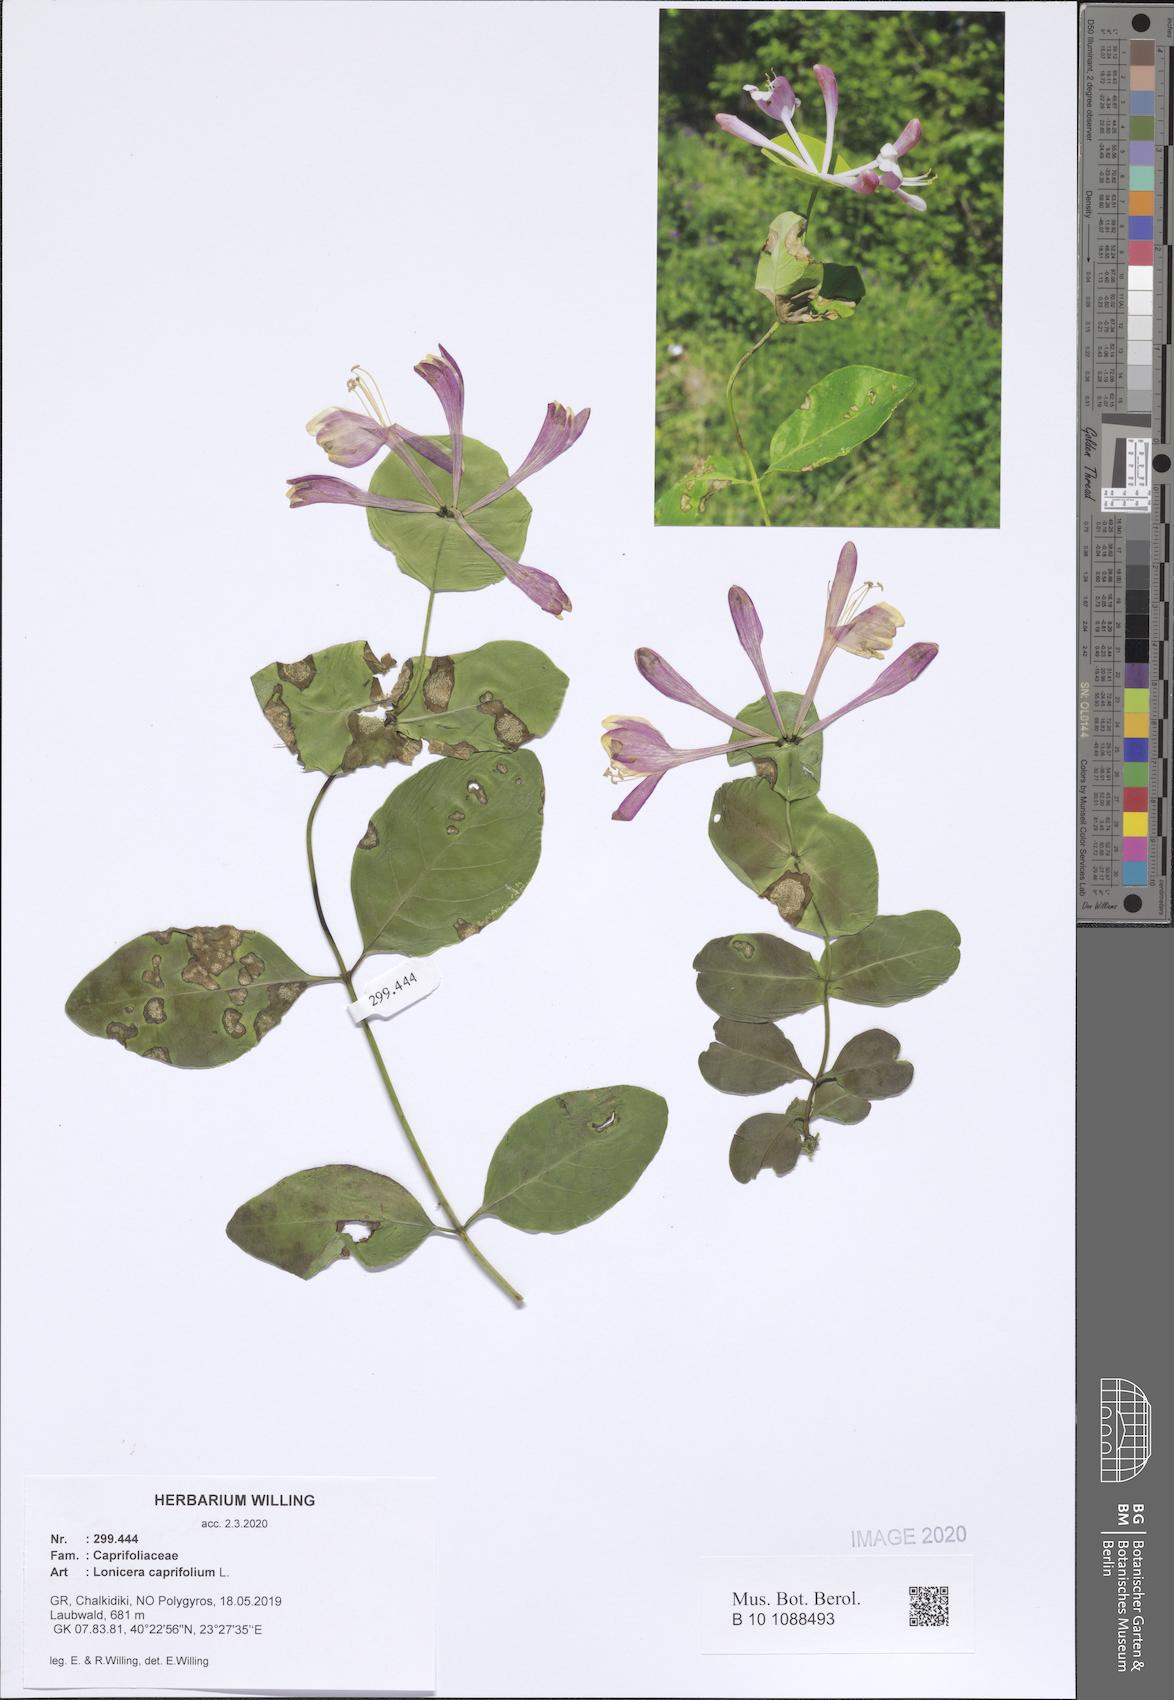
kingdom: Plantae
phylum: Tracheophyta
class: Magnoliopsida
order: Dipsacales
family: Caprifoliaceae
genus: Lonicera
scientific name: Lonicera caprifolium
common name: Perfoliate honeysuckle
